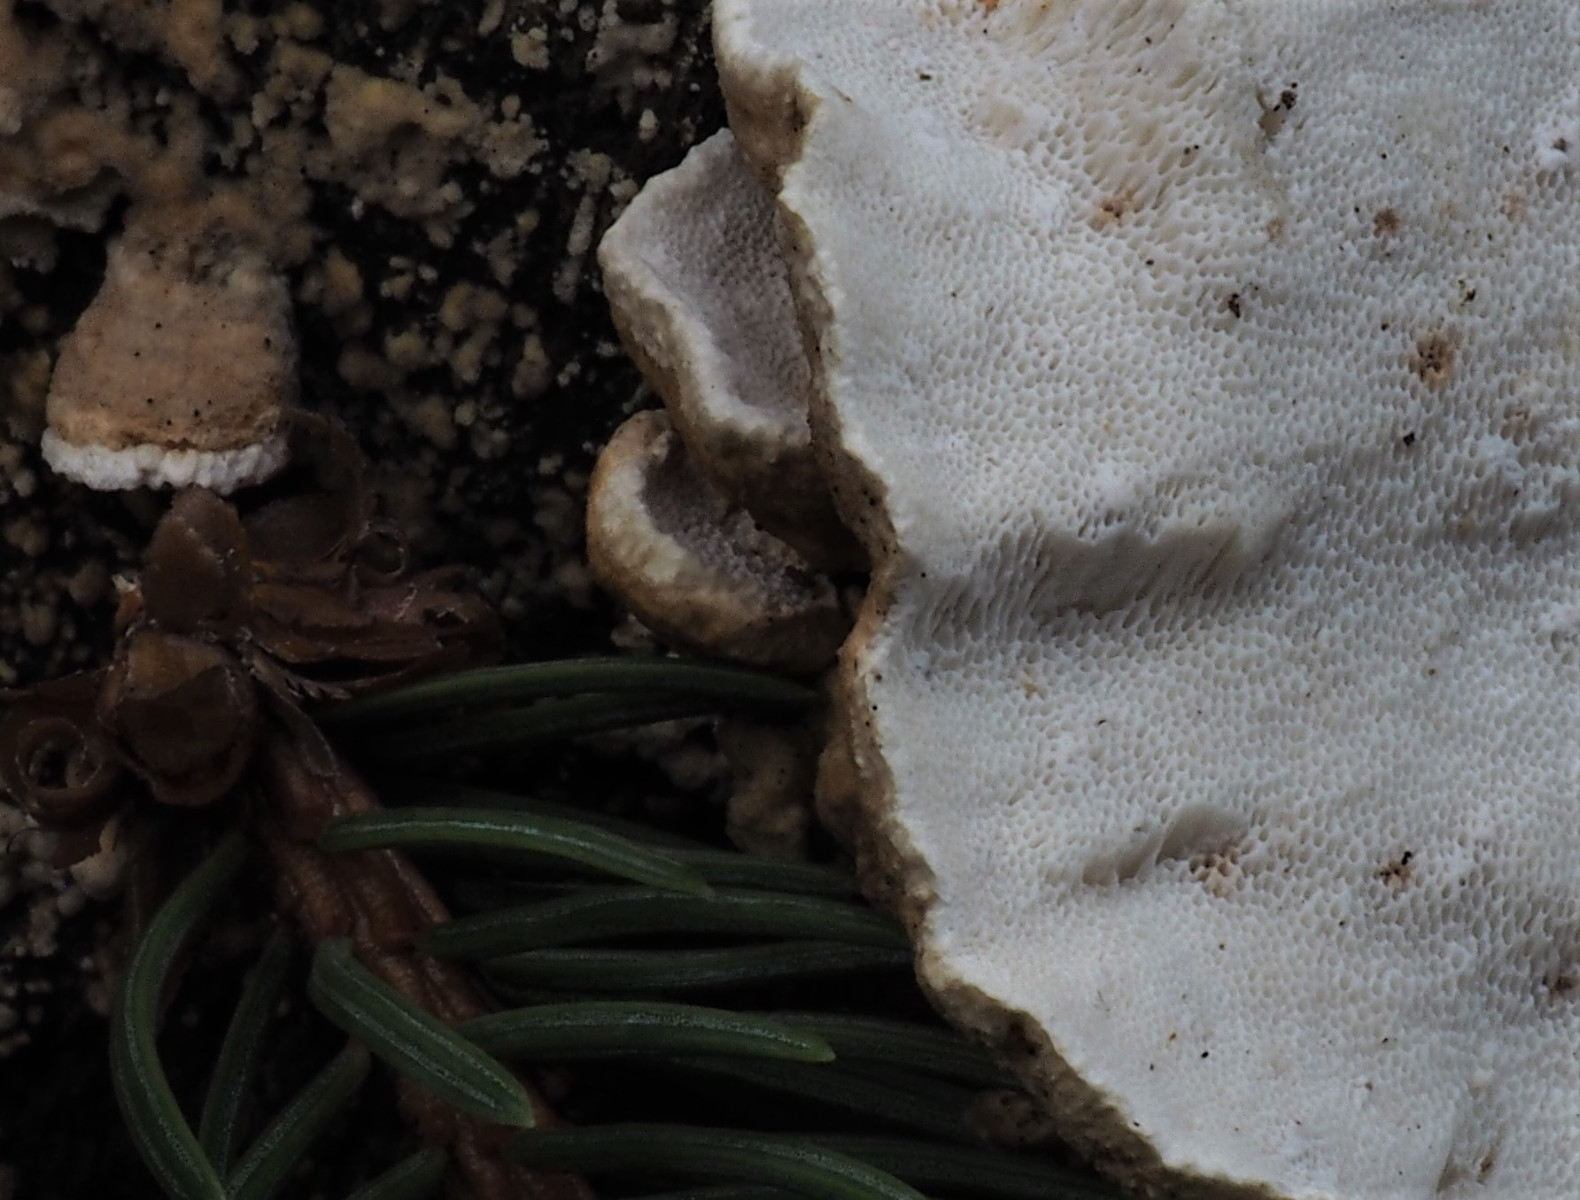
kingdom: Fungi
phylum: Basidiomycota
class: Agaricomycetes
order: Polyporales
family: Fomitopsidaceae
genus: Neoantrodia
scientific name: Neoantrodia serialis
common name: række-sejporesvamp
